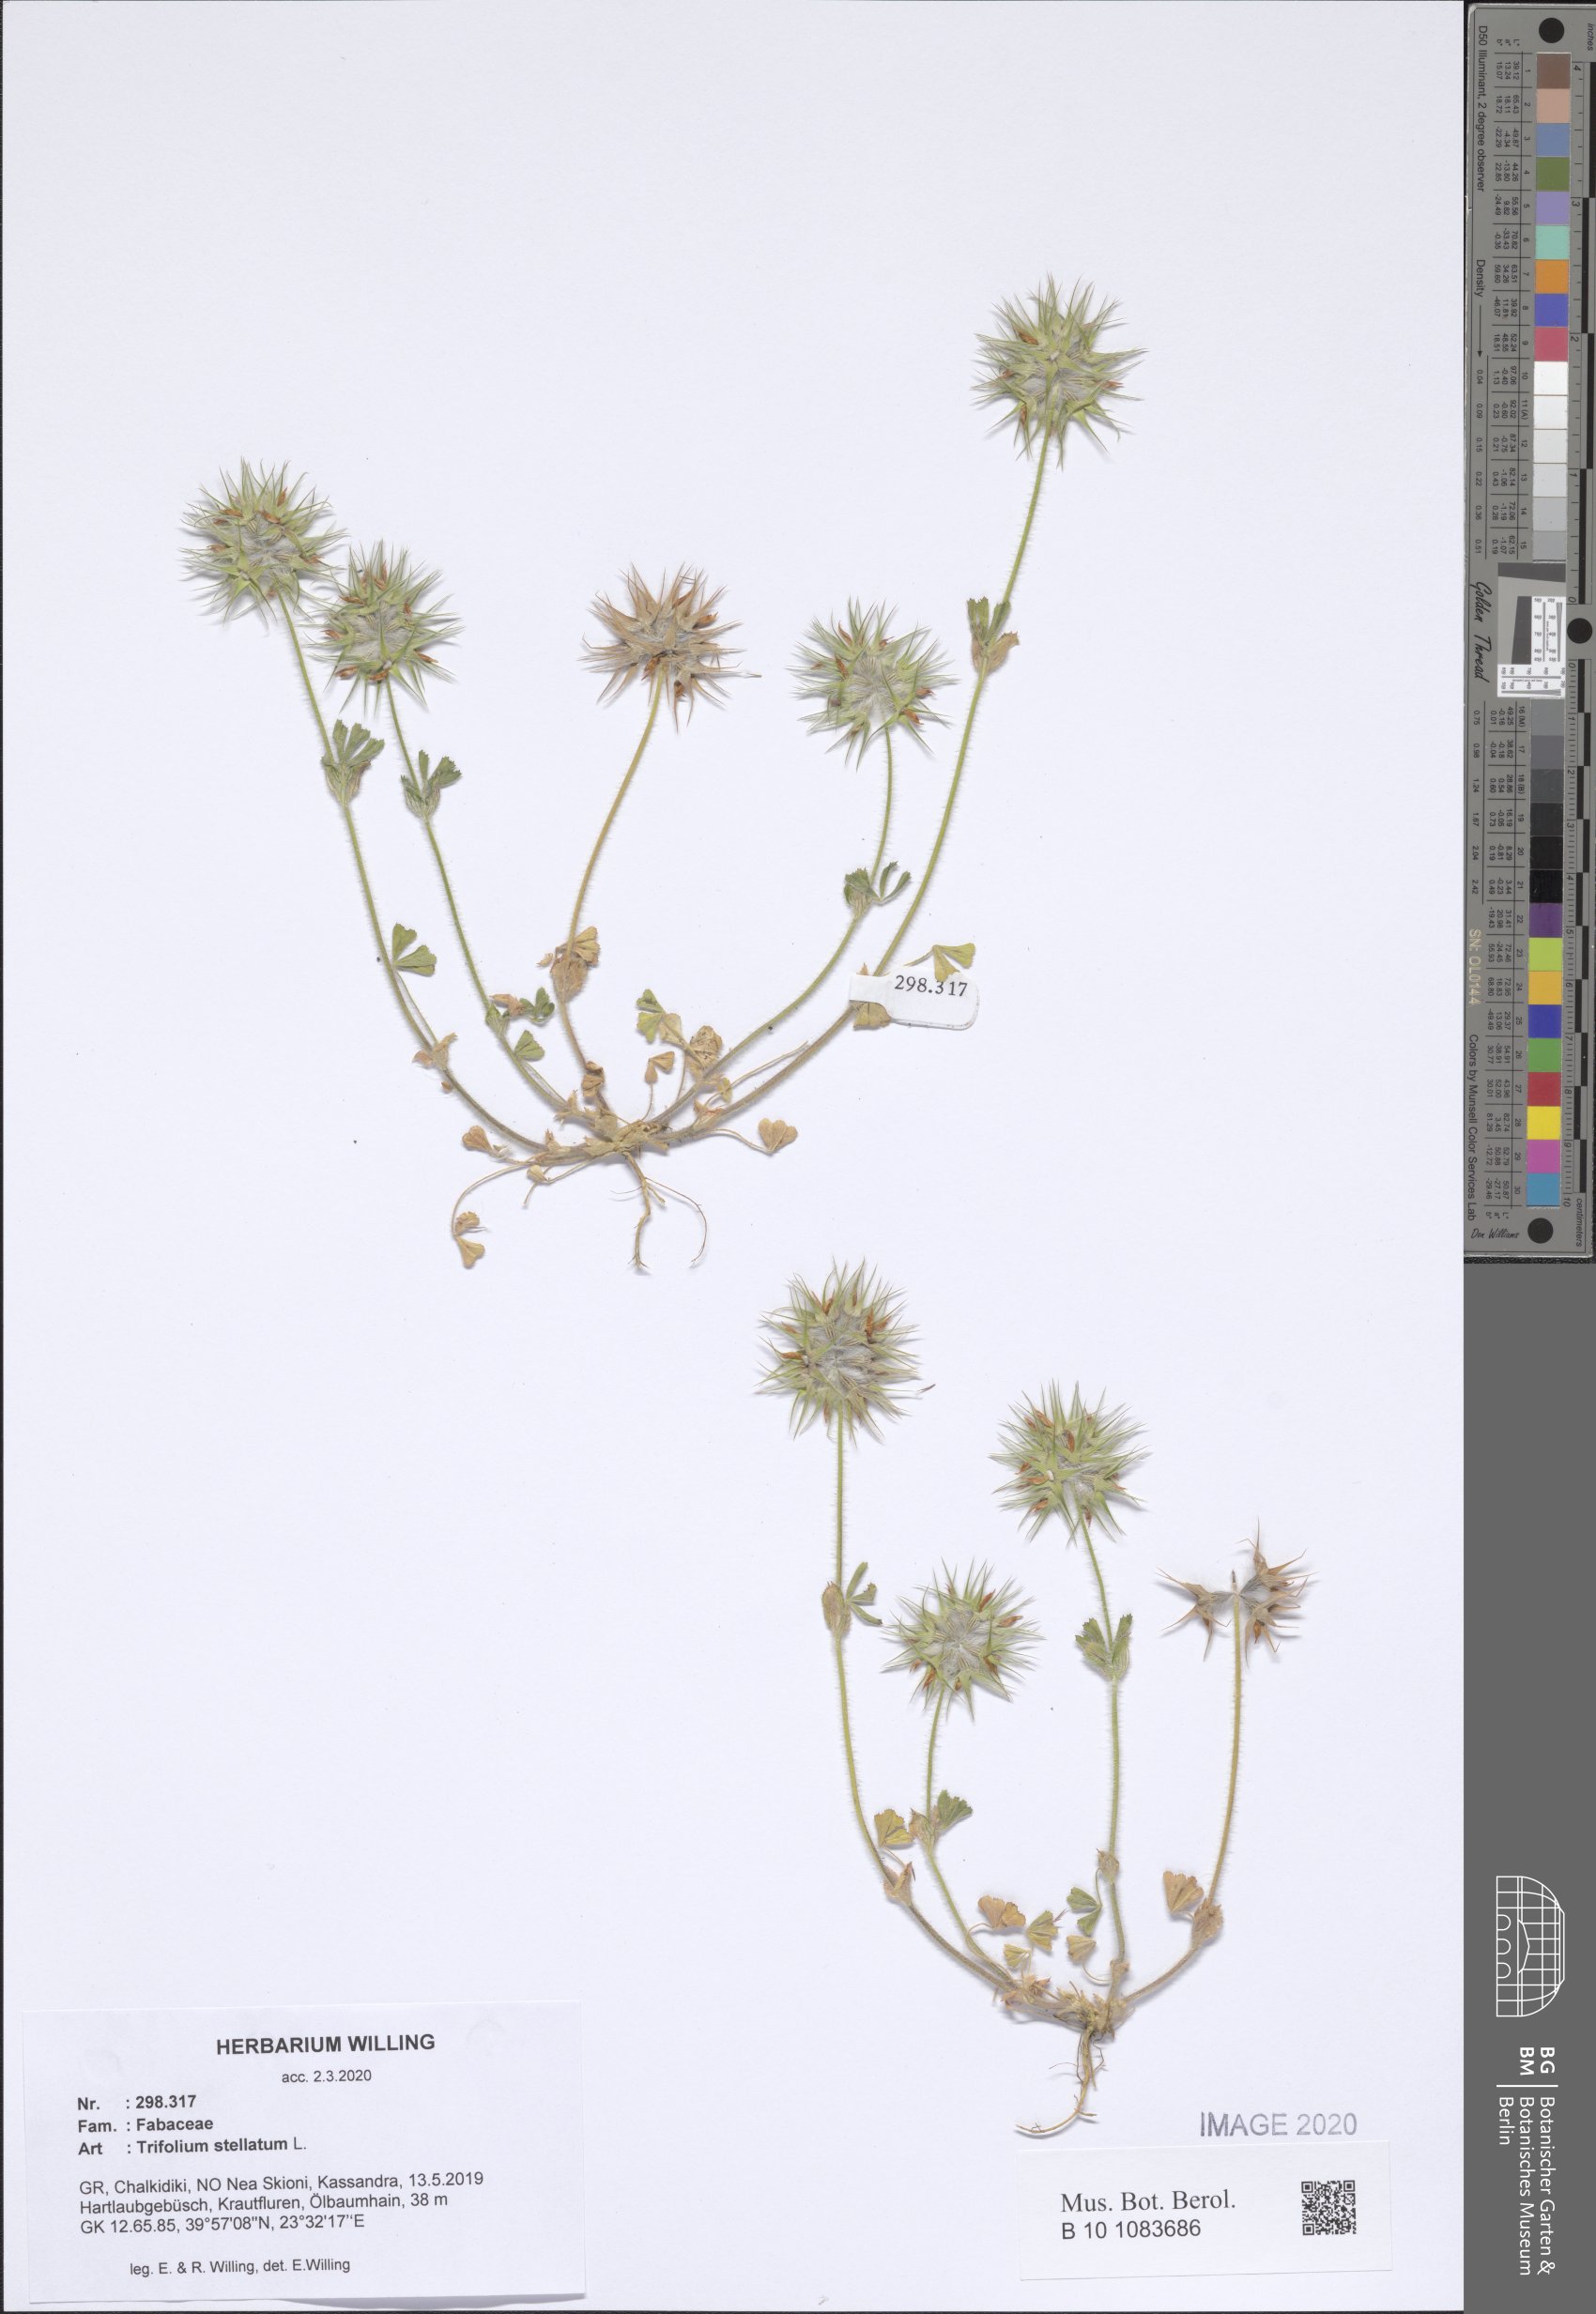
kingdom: Plantae
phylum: Tracheophyta
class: Magnoliopsida
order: Fabales
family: Fabaceae
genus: Trifolium
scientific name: Trifolium stellatum
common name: Starry clover
